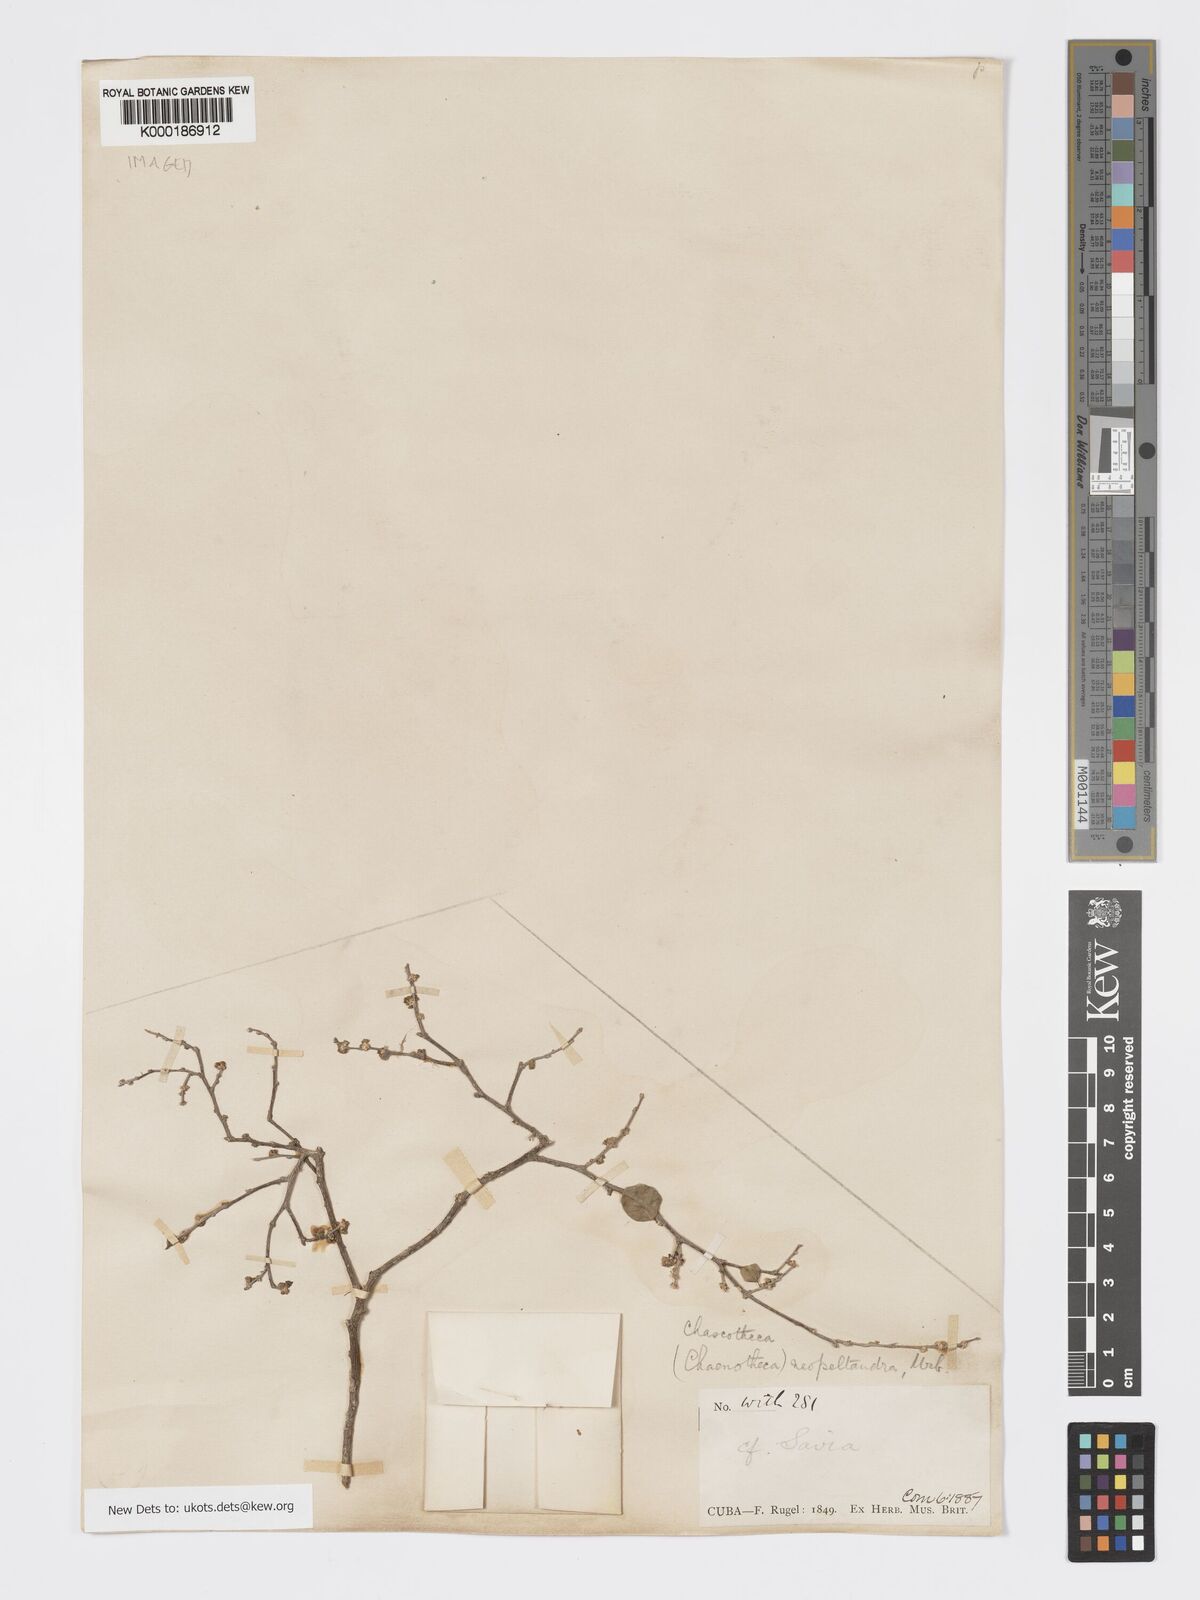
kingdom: Plantae
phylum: Tracheophyta
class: Magnoliopsida
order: Malpighiales
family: Phyllanthaceae
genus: Chascotheca
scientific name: Chascotheca neopeltandra
